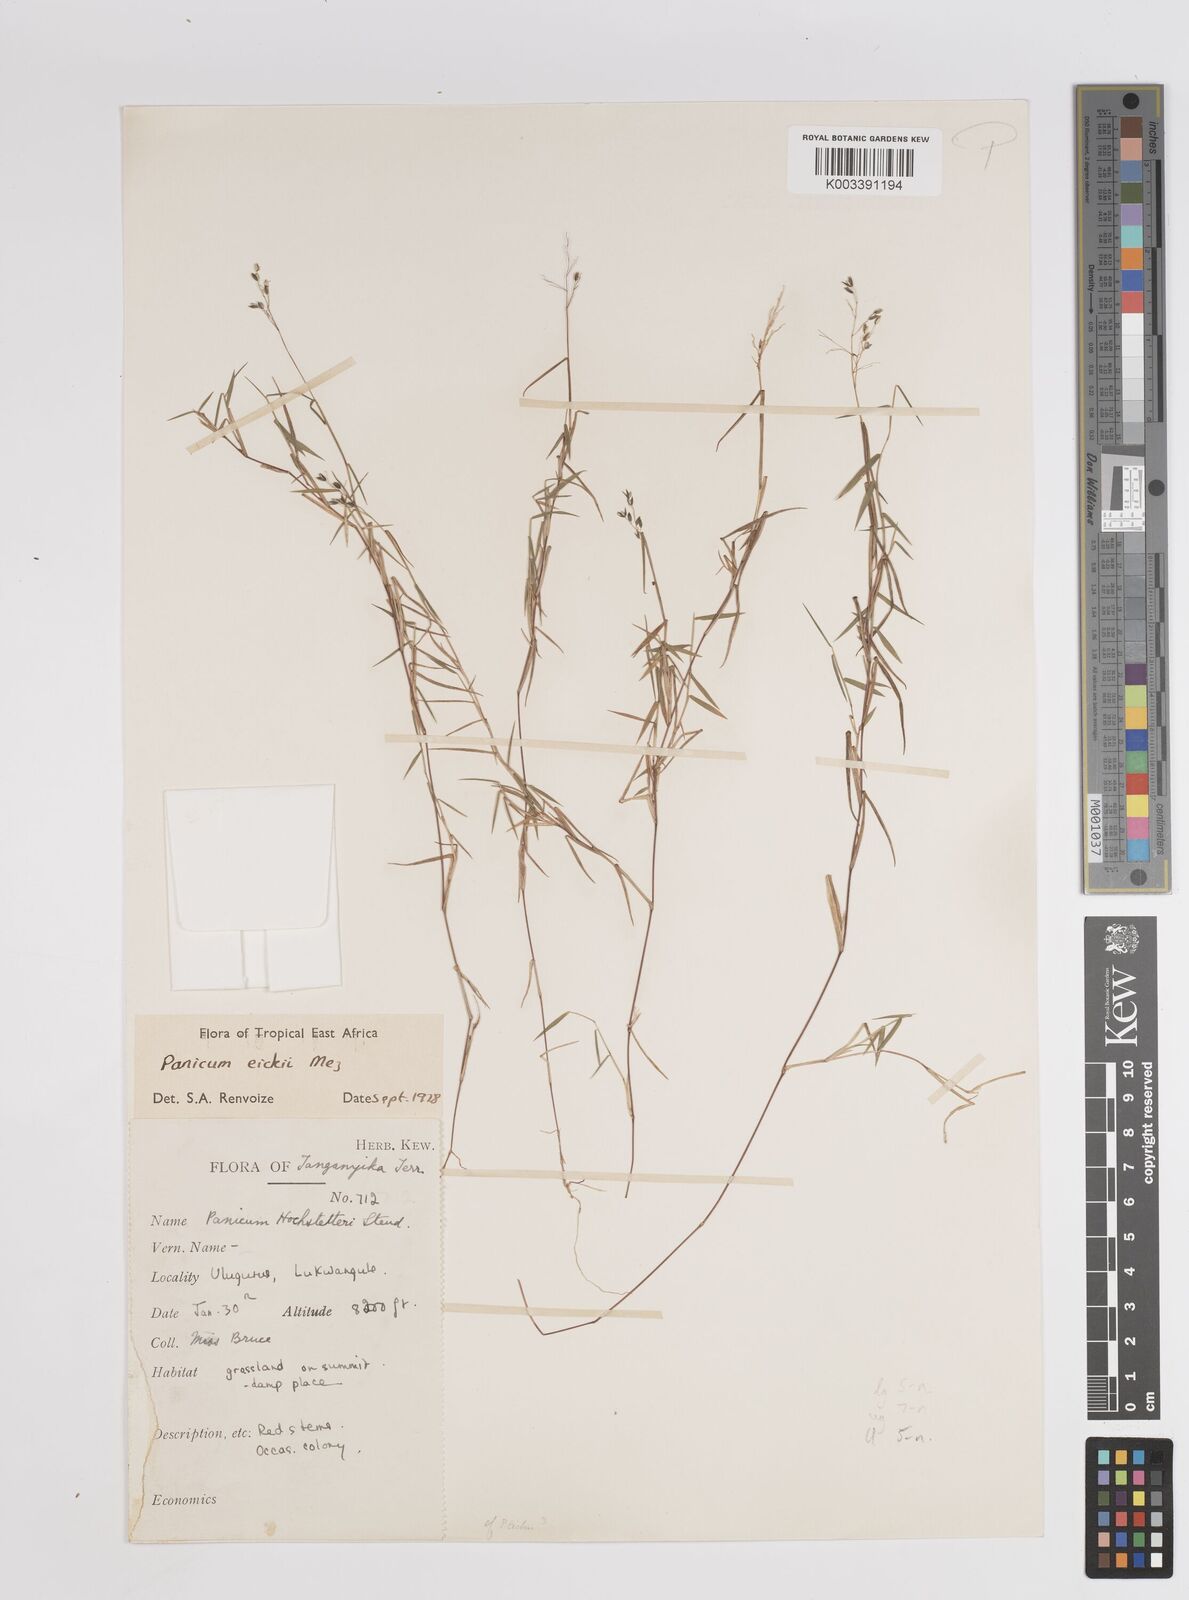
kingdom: Plantae
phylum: Tracheophyta
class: Liliopsida
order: Poales
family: Poaceae
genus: Panicum
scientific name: Panicum eickii
